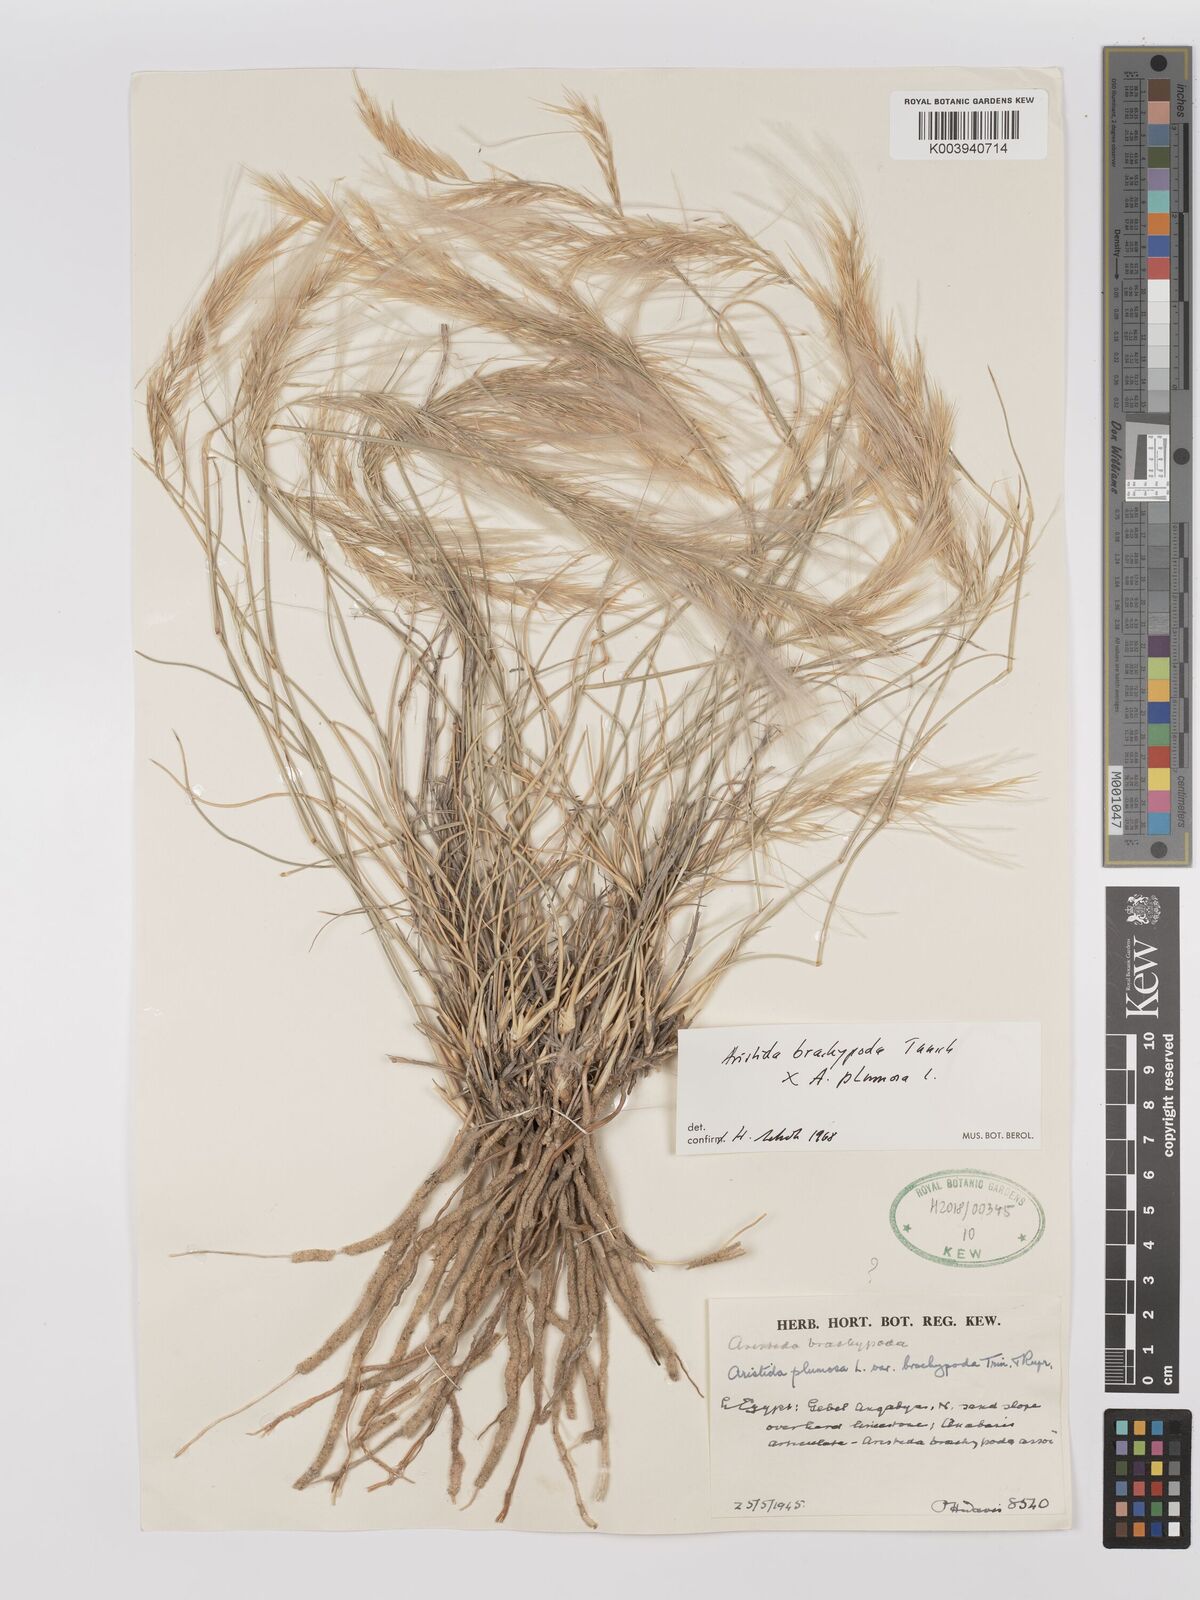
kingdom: Plantae
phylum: Tracheophyta
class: Liliopsida
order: Poales
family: Poaceae
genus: Stipagrostis
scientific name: Stipagrostis plumosa
